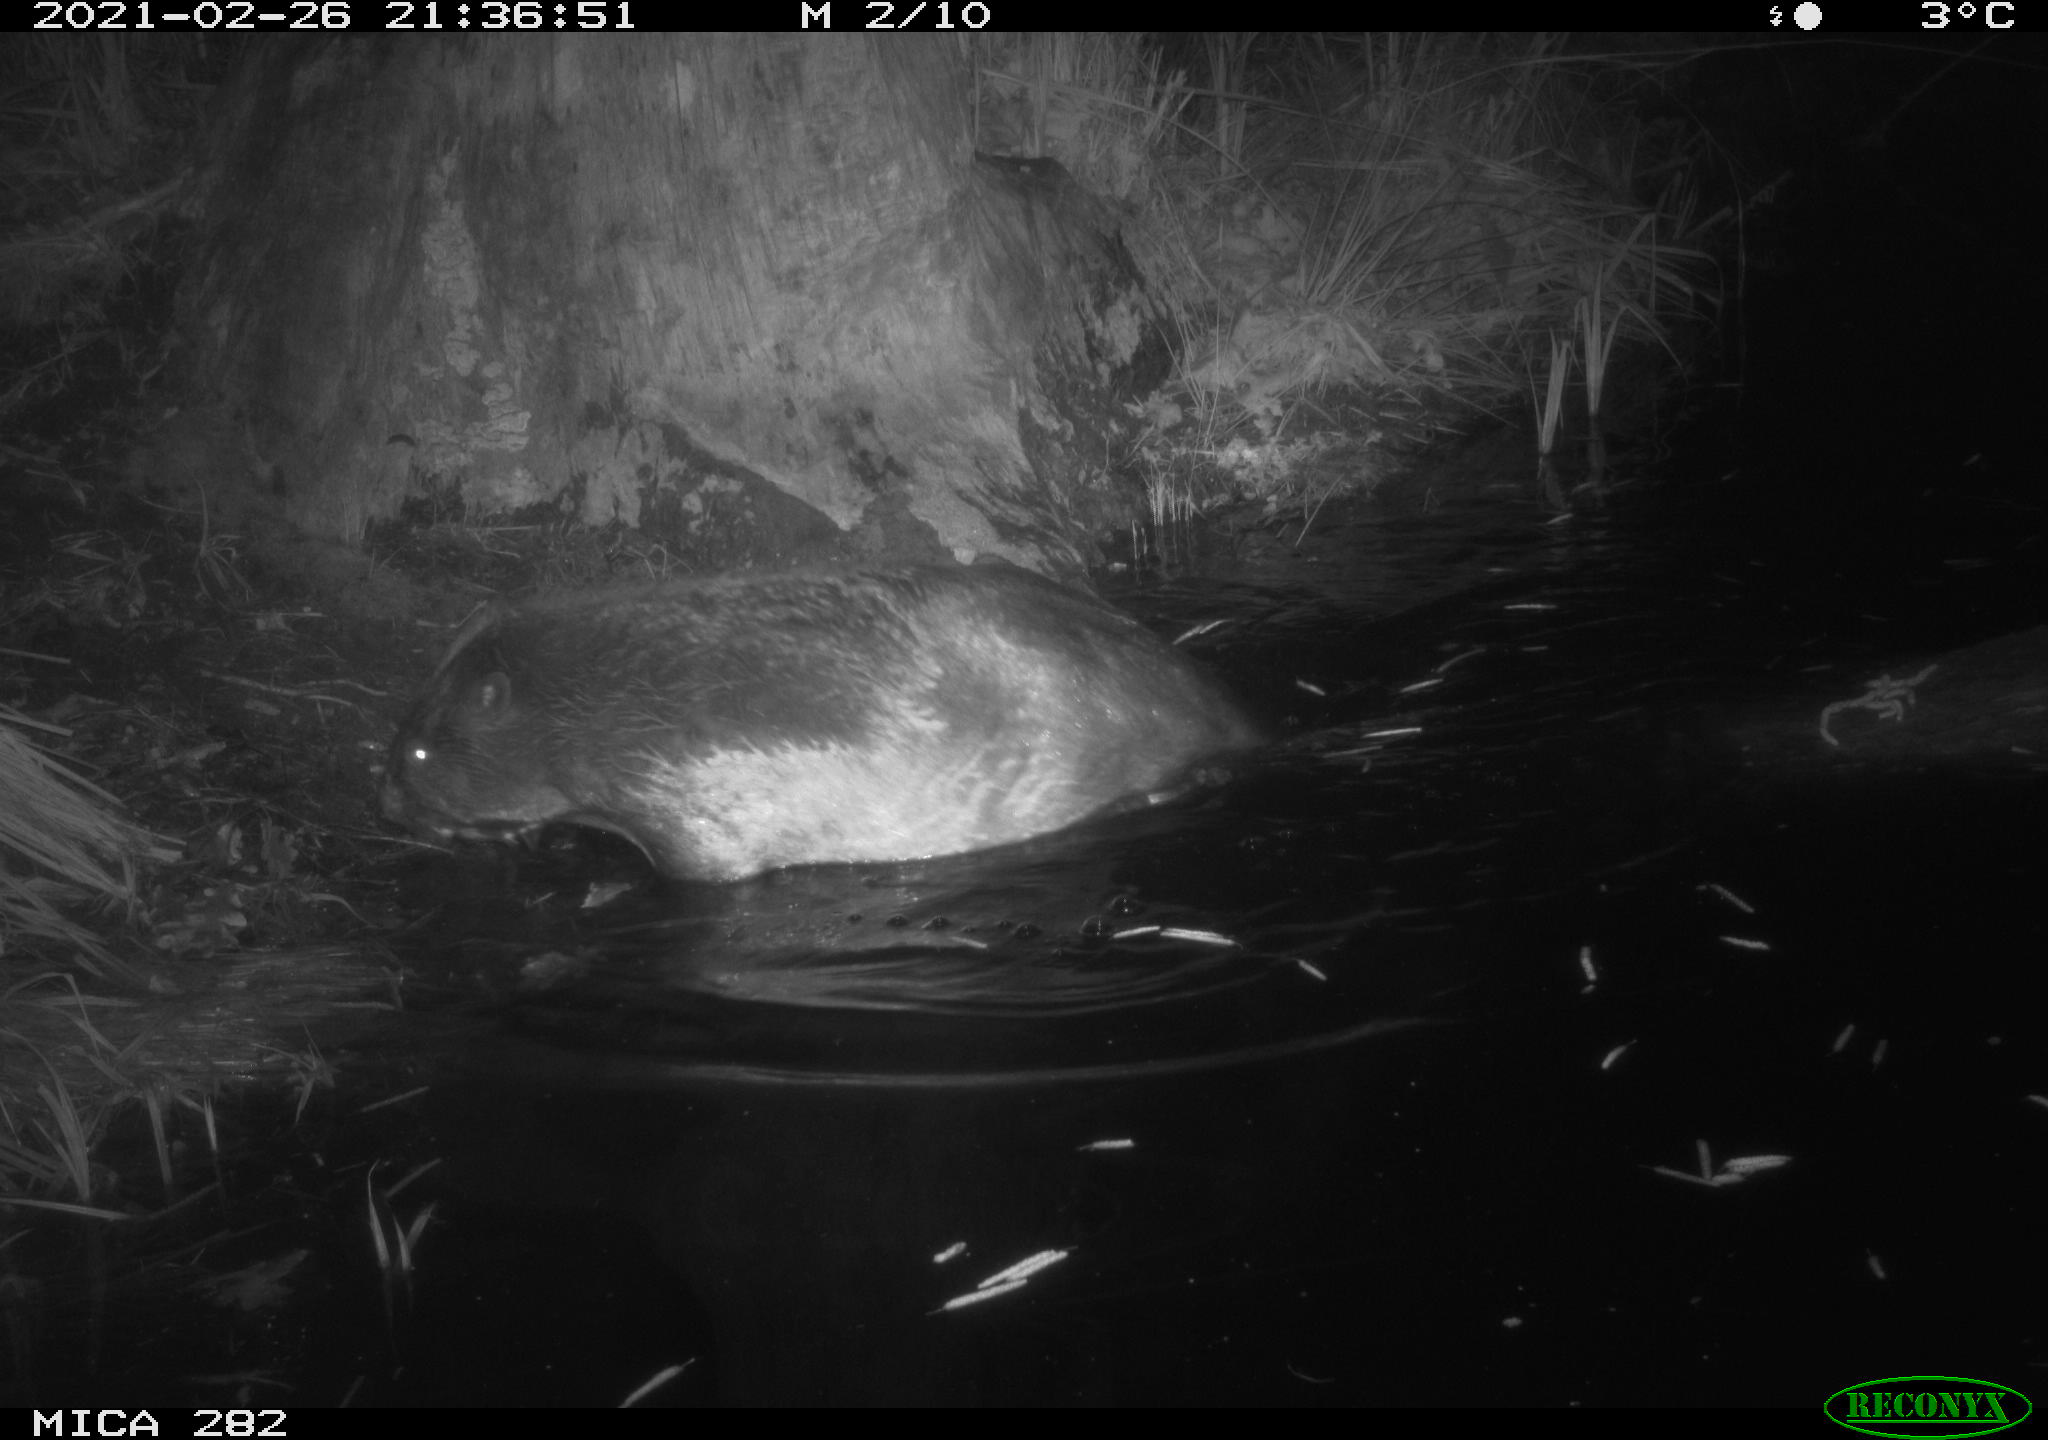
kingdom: Animalia
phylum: Chordata
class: Mammalia
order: Rodentia
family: Castoridae
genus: Castor
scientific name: Castor fiber
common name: Eurasian beaver
